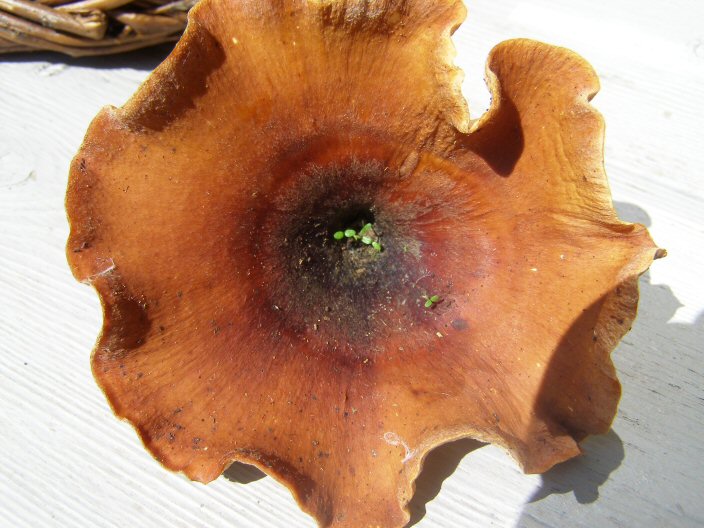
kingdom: Fungi
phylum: Basidiomycota
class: Agaricomycetes
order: Polyporales
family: Polyporaceae
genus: Picipes
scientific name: Picipes tubaeformis
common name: trompet-stilkporesvamp
